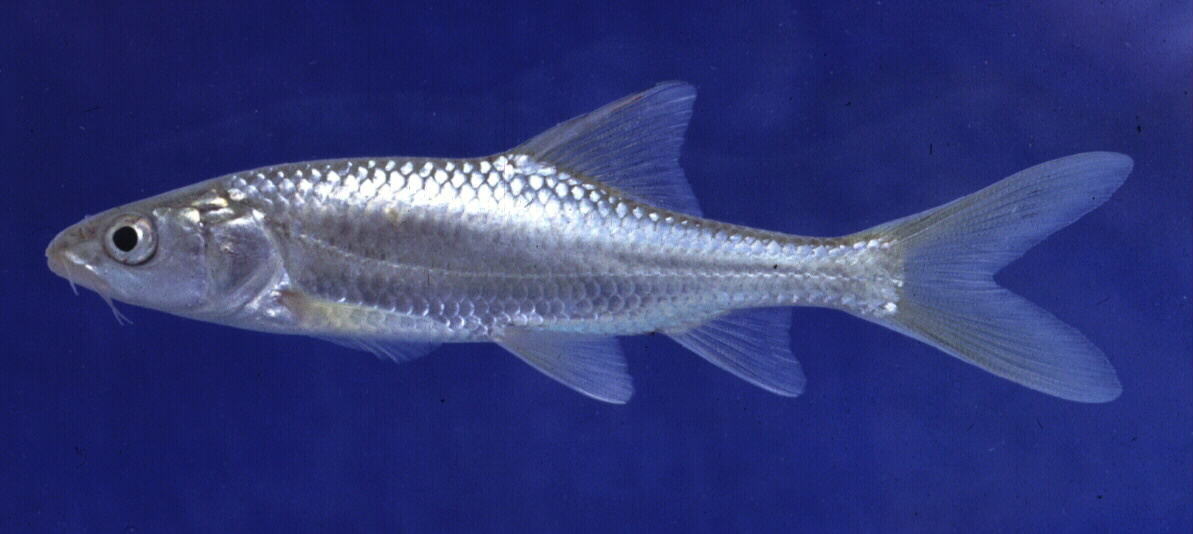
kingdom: Animalia
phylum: Chordata
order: Cypriniformes
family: Cyprinidae
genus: Labeobarbus
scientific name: Labeobarbus kimberleyensis
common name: Largemouth yellowfish
